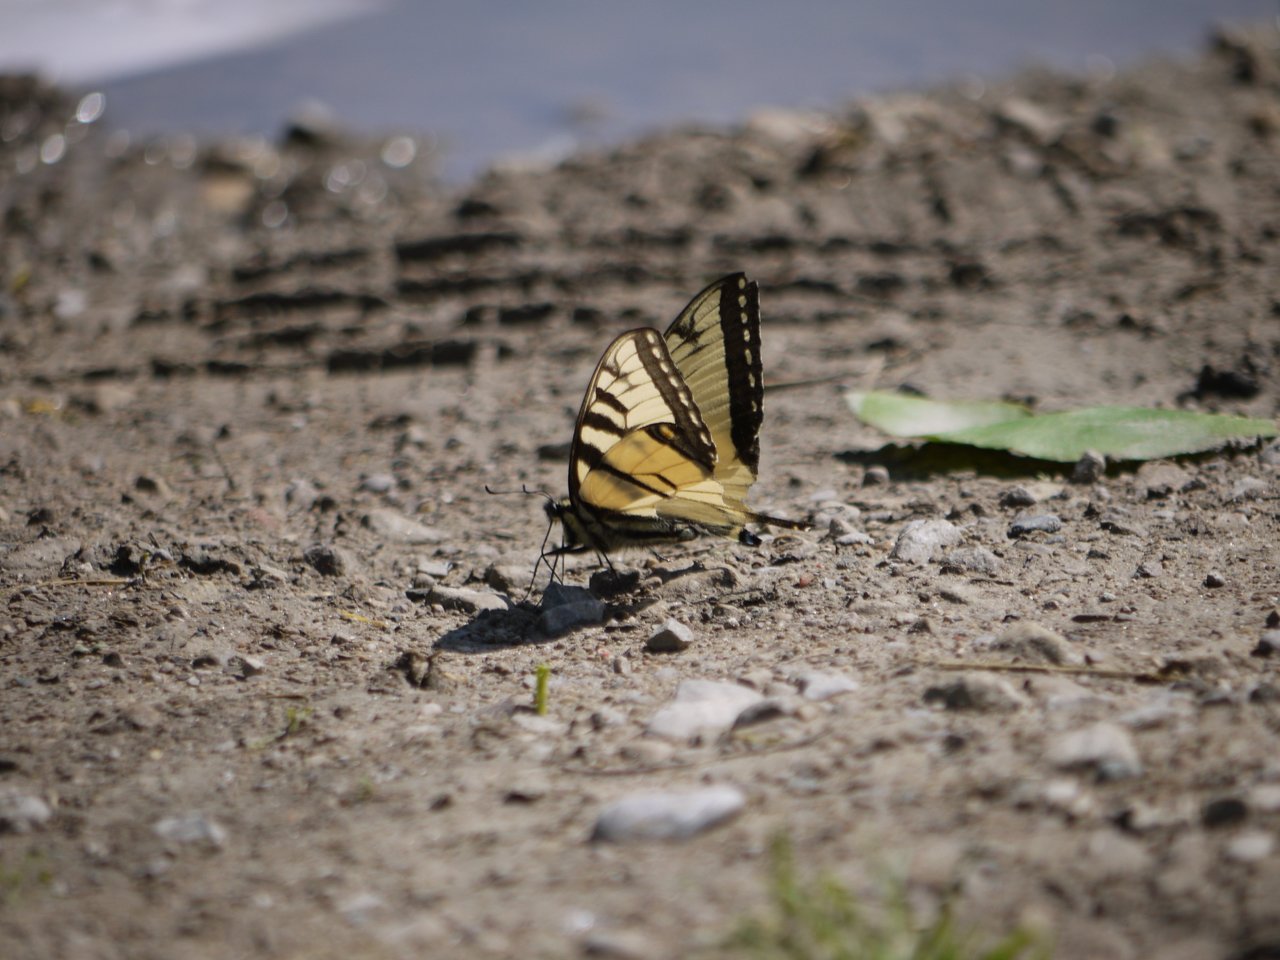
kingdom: Animalia
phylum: Arthropoda
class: Insecta
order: Lepidoptera
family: Papilionidae
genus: Pterourus
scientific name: Pterourus glaucus
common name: Eastern Tiger Swallowtail
